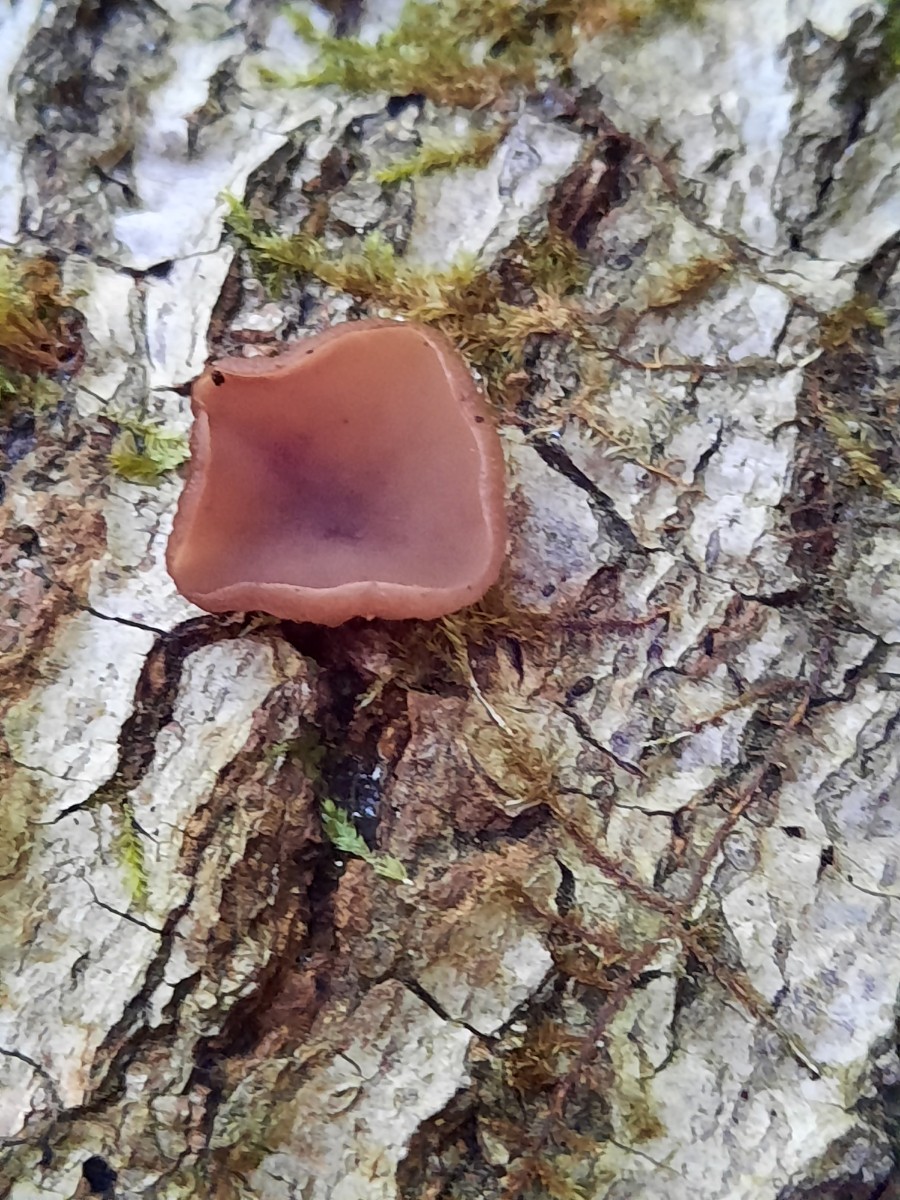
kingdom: Fungi
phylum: Ascomycota
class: Leotiomycetes
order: Helotiales
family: Gelatinodiscaceae
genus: Neobulgaria
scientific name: Neobulgaria pura
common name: bleg bævreskive
